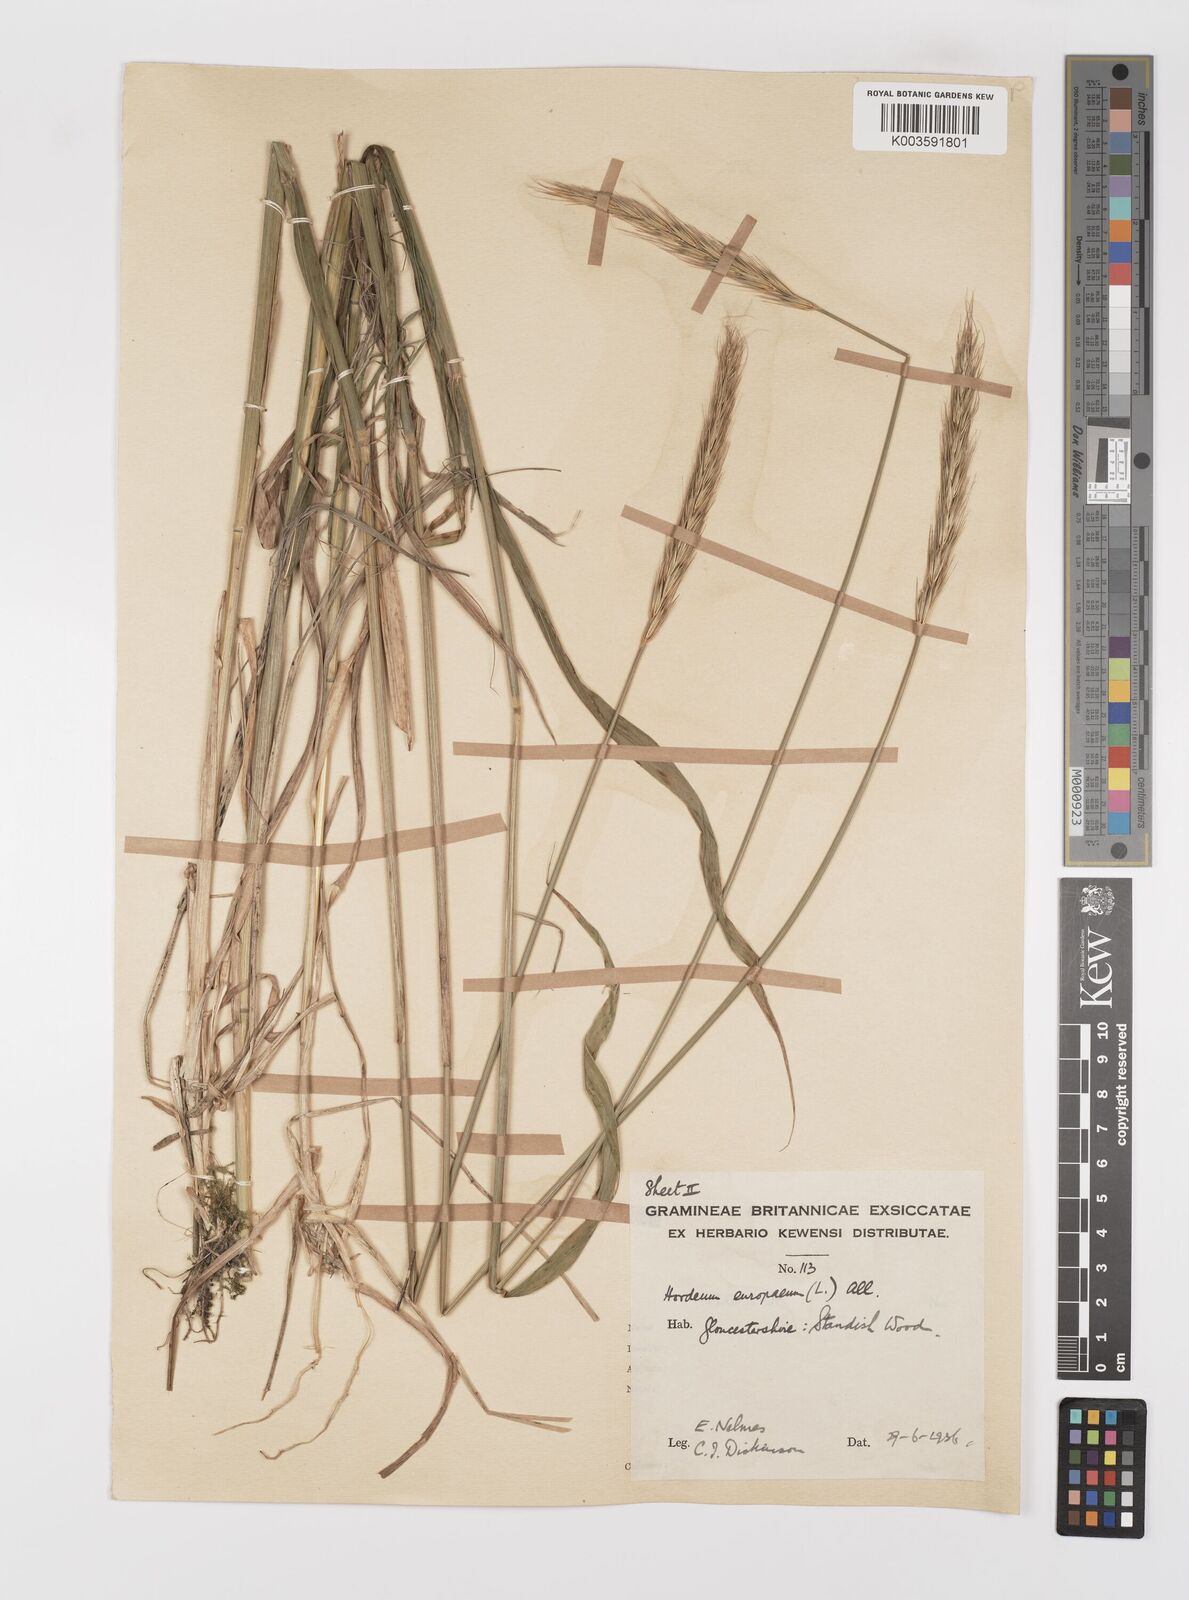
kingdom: Plantae
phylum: Tracheophyta
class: Liliopsida
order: Poales
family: Poaceae
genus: Hordelymus
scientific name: Hordelymus europaeus
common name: Wood-barley
